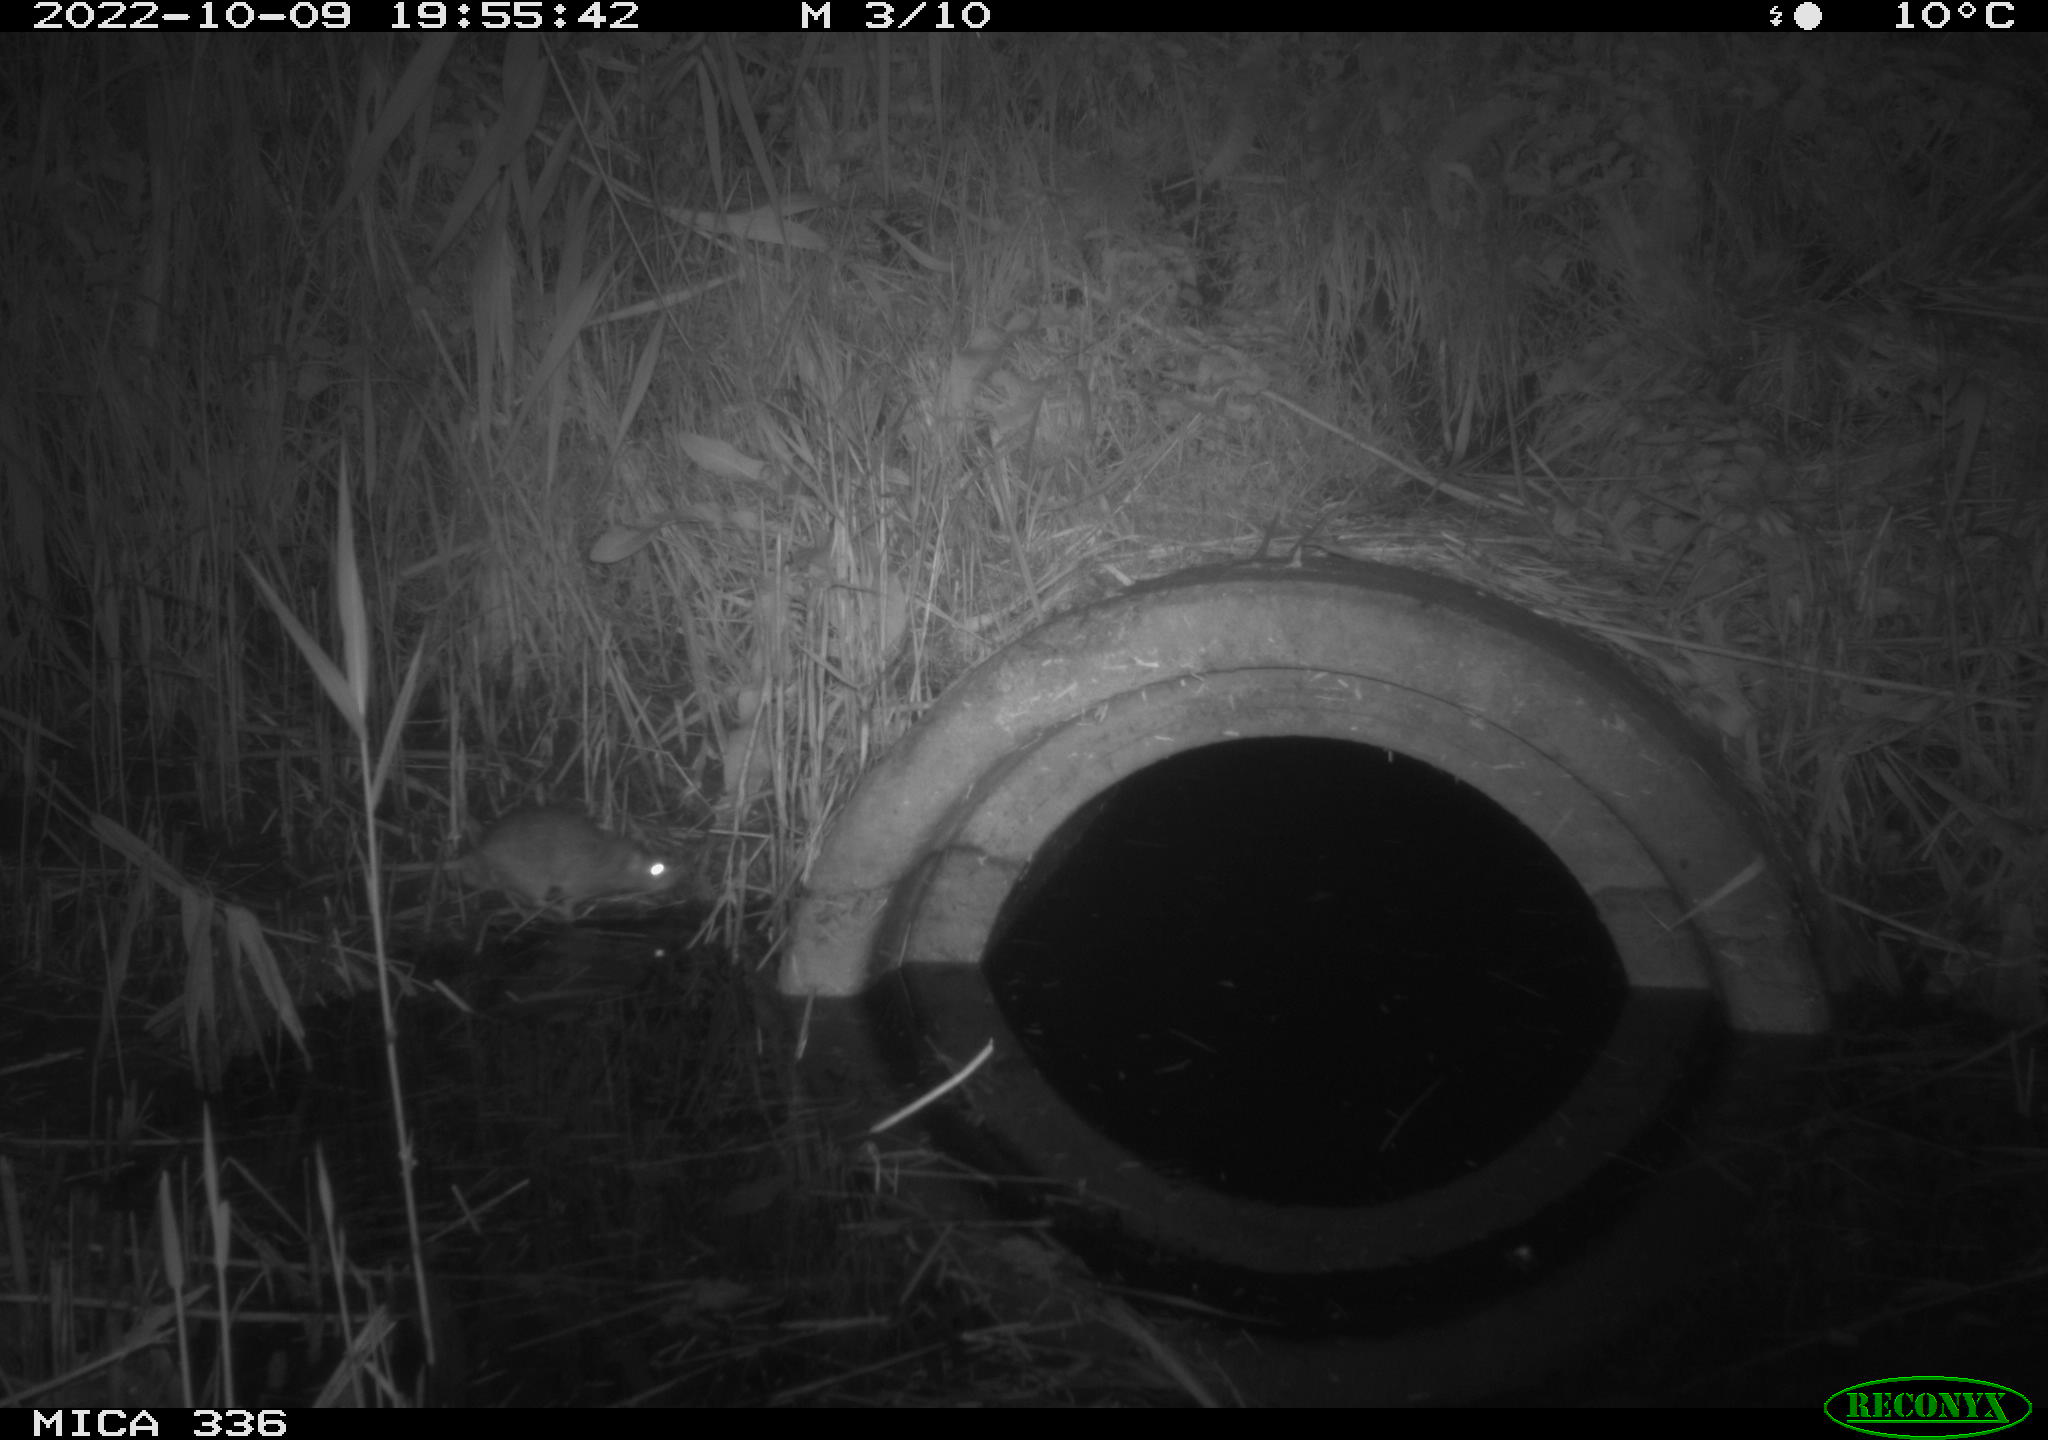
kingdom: Animalia
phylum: Chordata
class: Mammalia
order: Rodentia
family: Muridae
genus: Rattus
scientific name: Rattus norvegicus
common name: Brown rat
